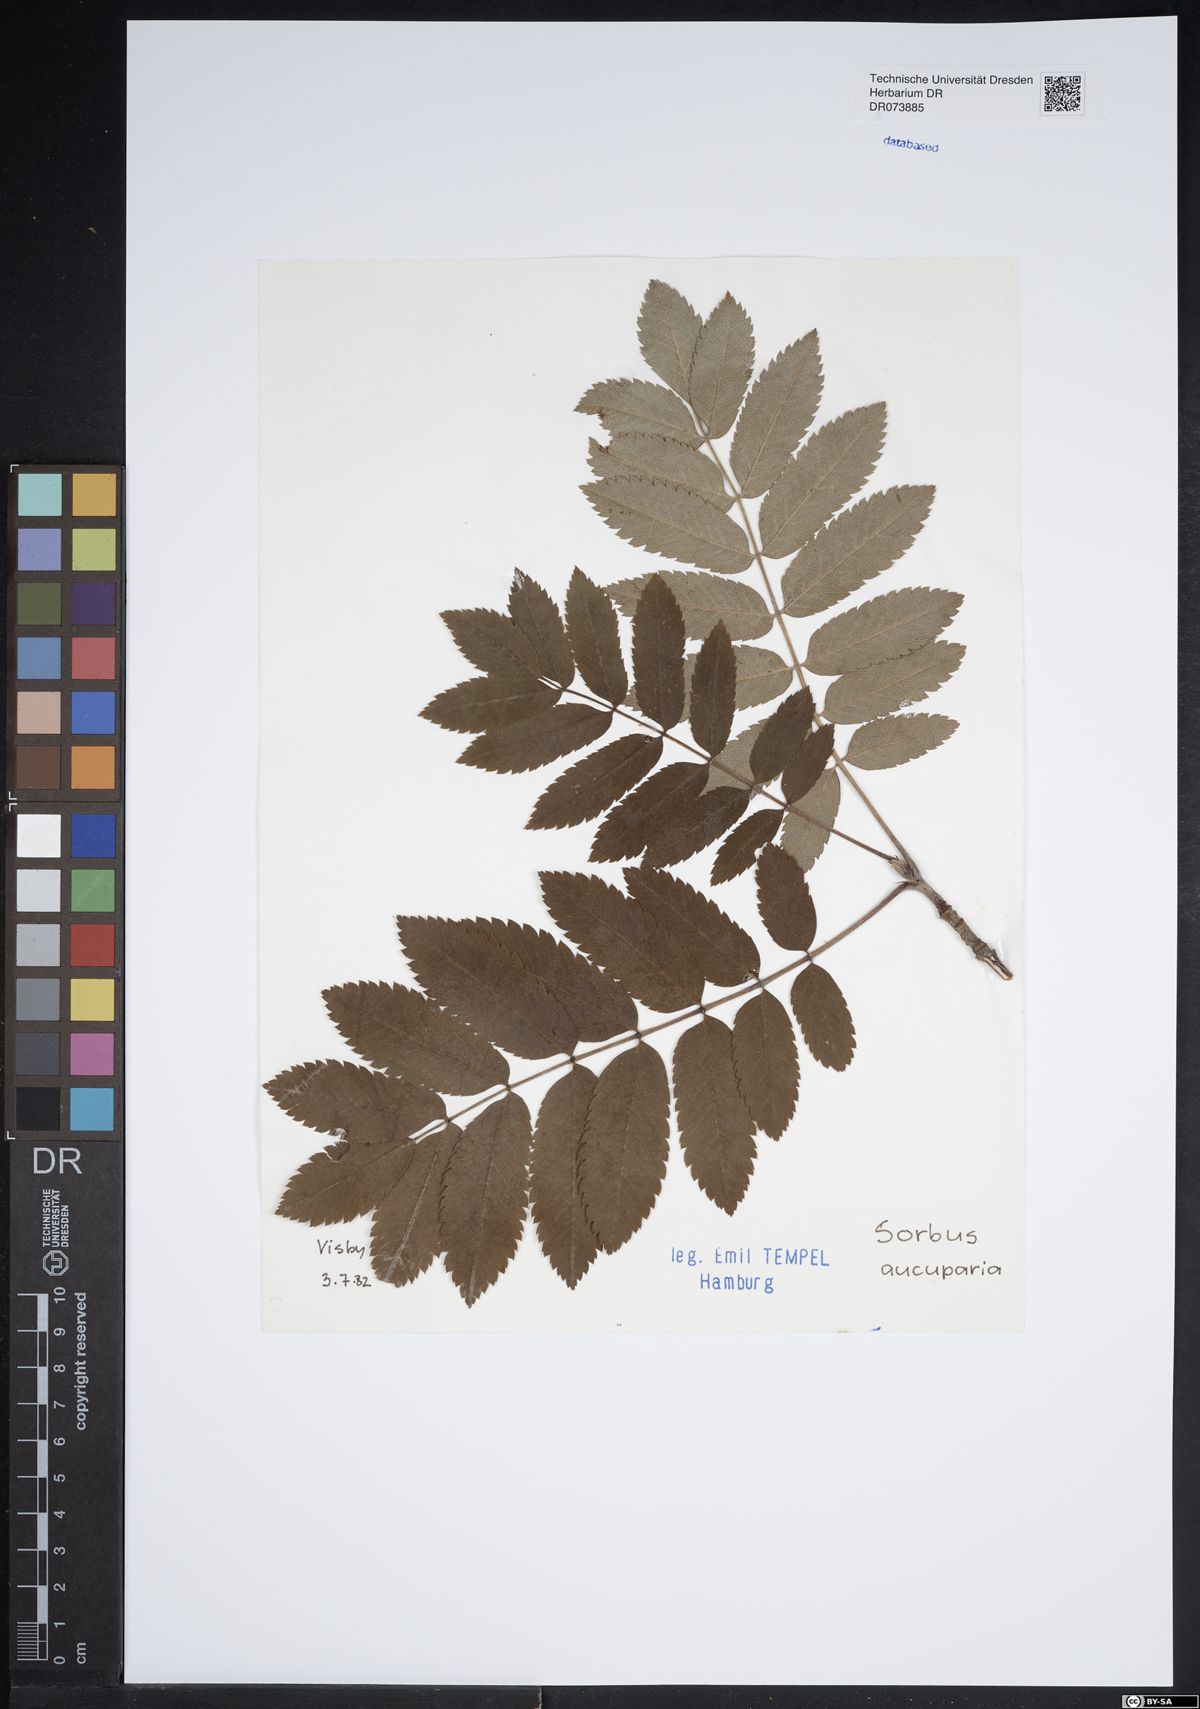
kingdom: Plantae
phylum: Tracheophyta
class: Magnoliopsida
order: Rosales
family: Rosaceae
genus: Sorbus
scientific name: Sorbus aucuparia
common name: Rowan
